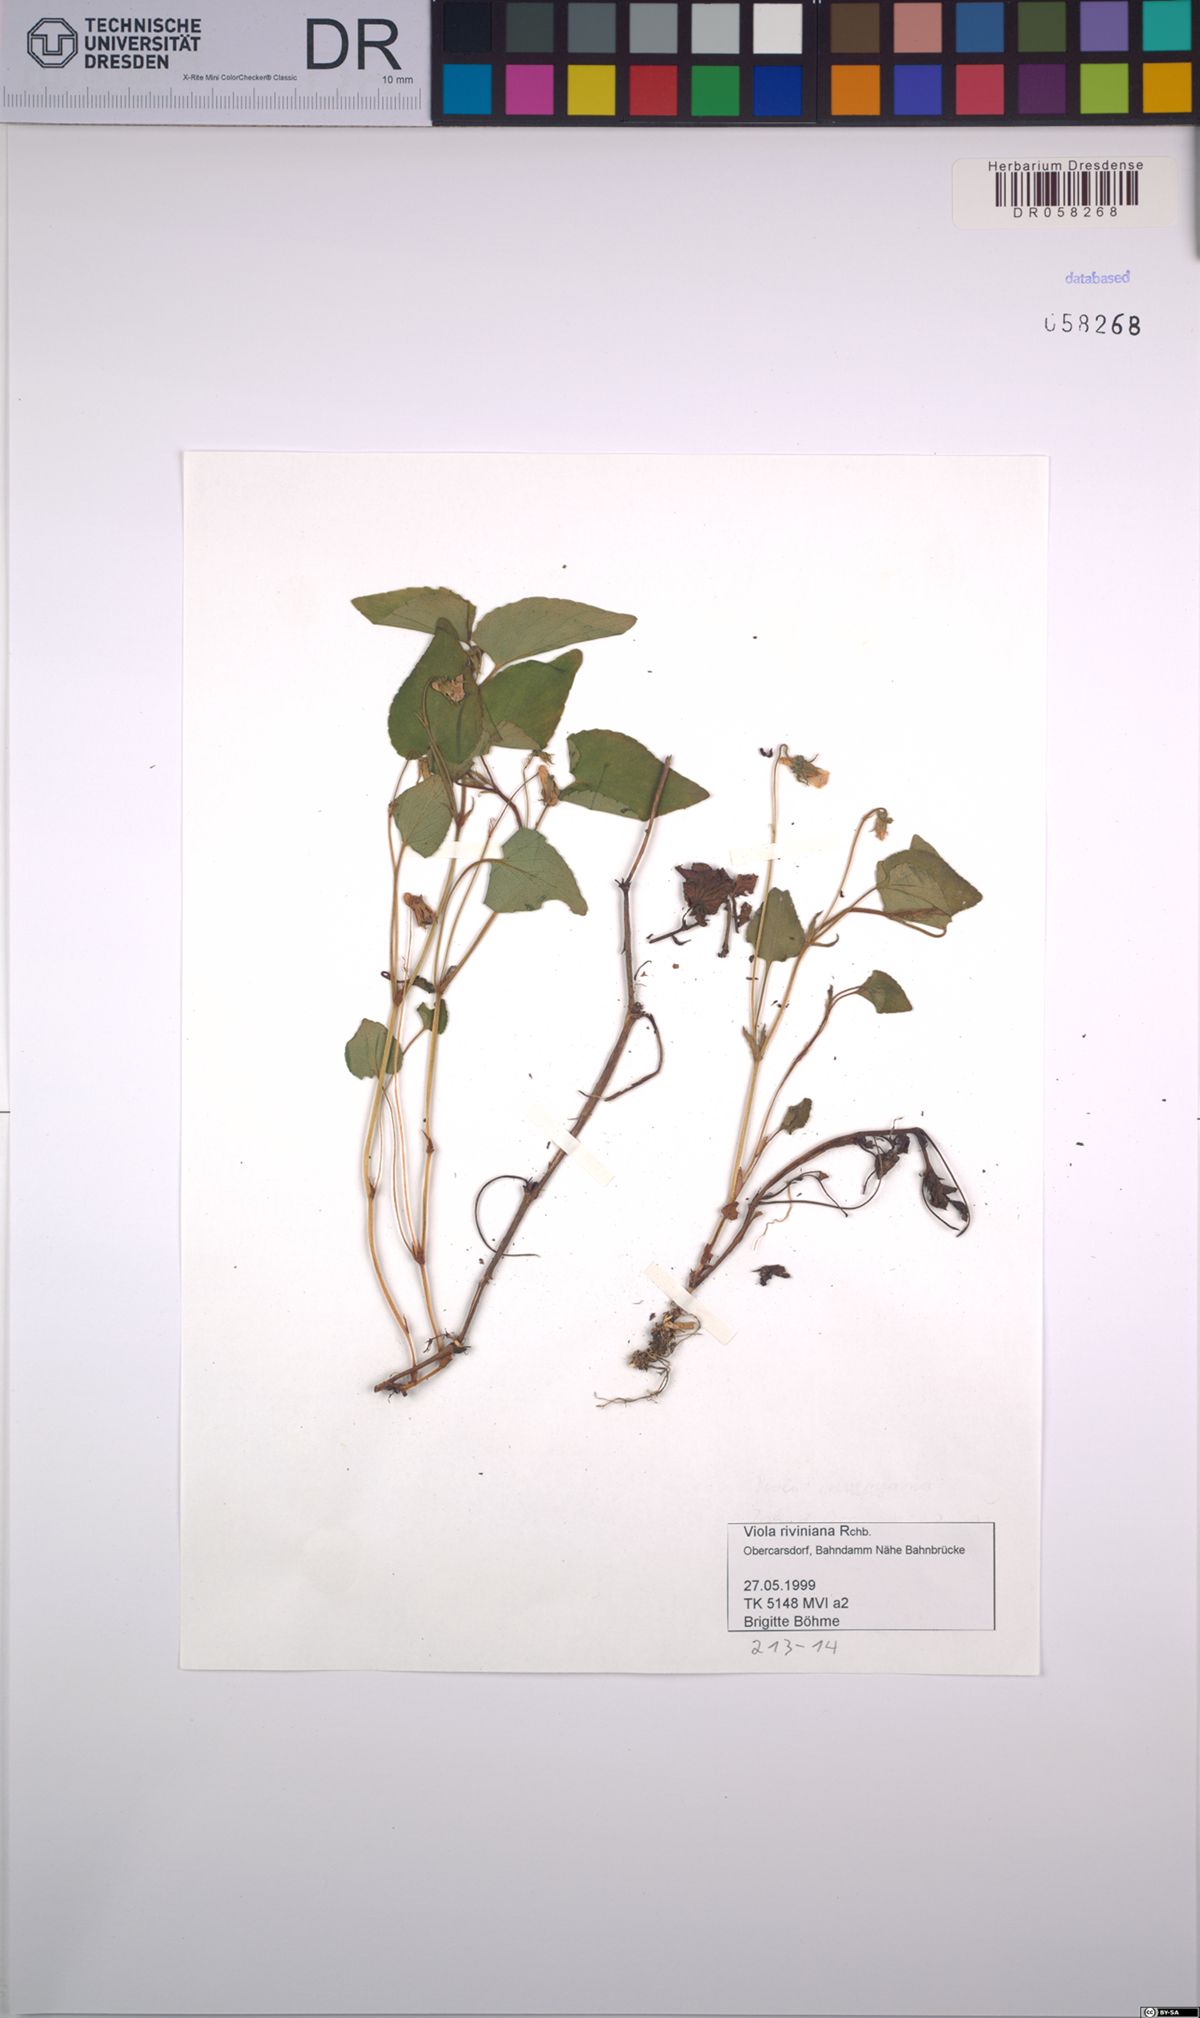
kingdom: Plantae
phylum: Tracheophyta
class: Magnoliopsida
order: Malpighiales
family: Violaceae
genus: Viola
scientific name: Viola riviniana
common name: Common dog-violet
